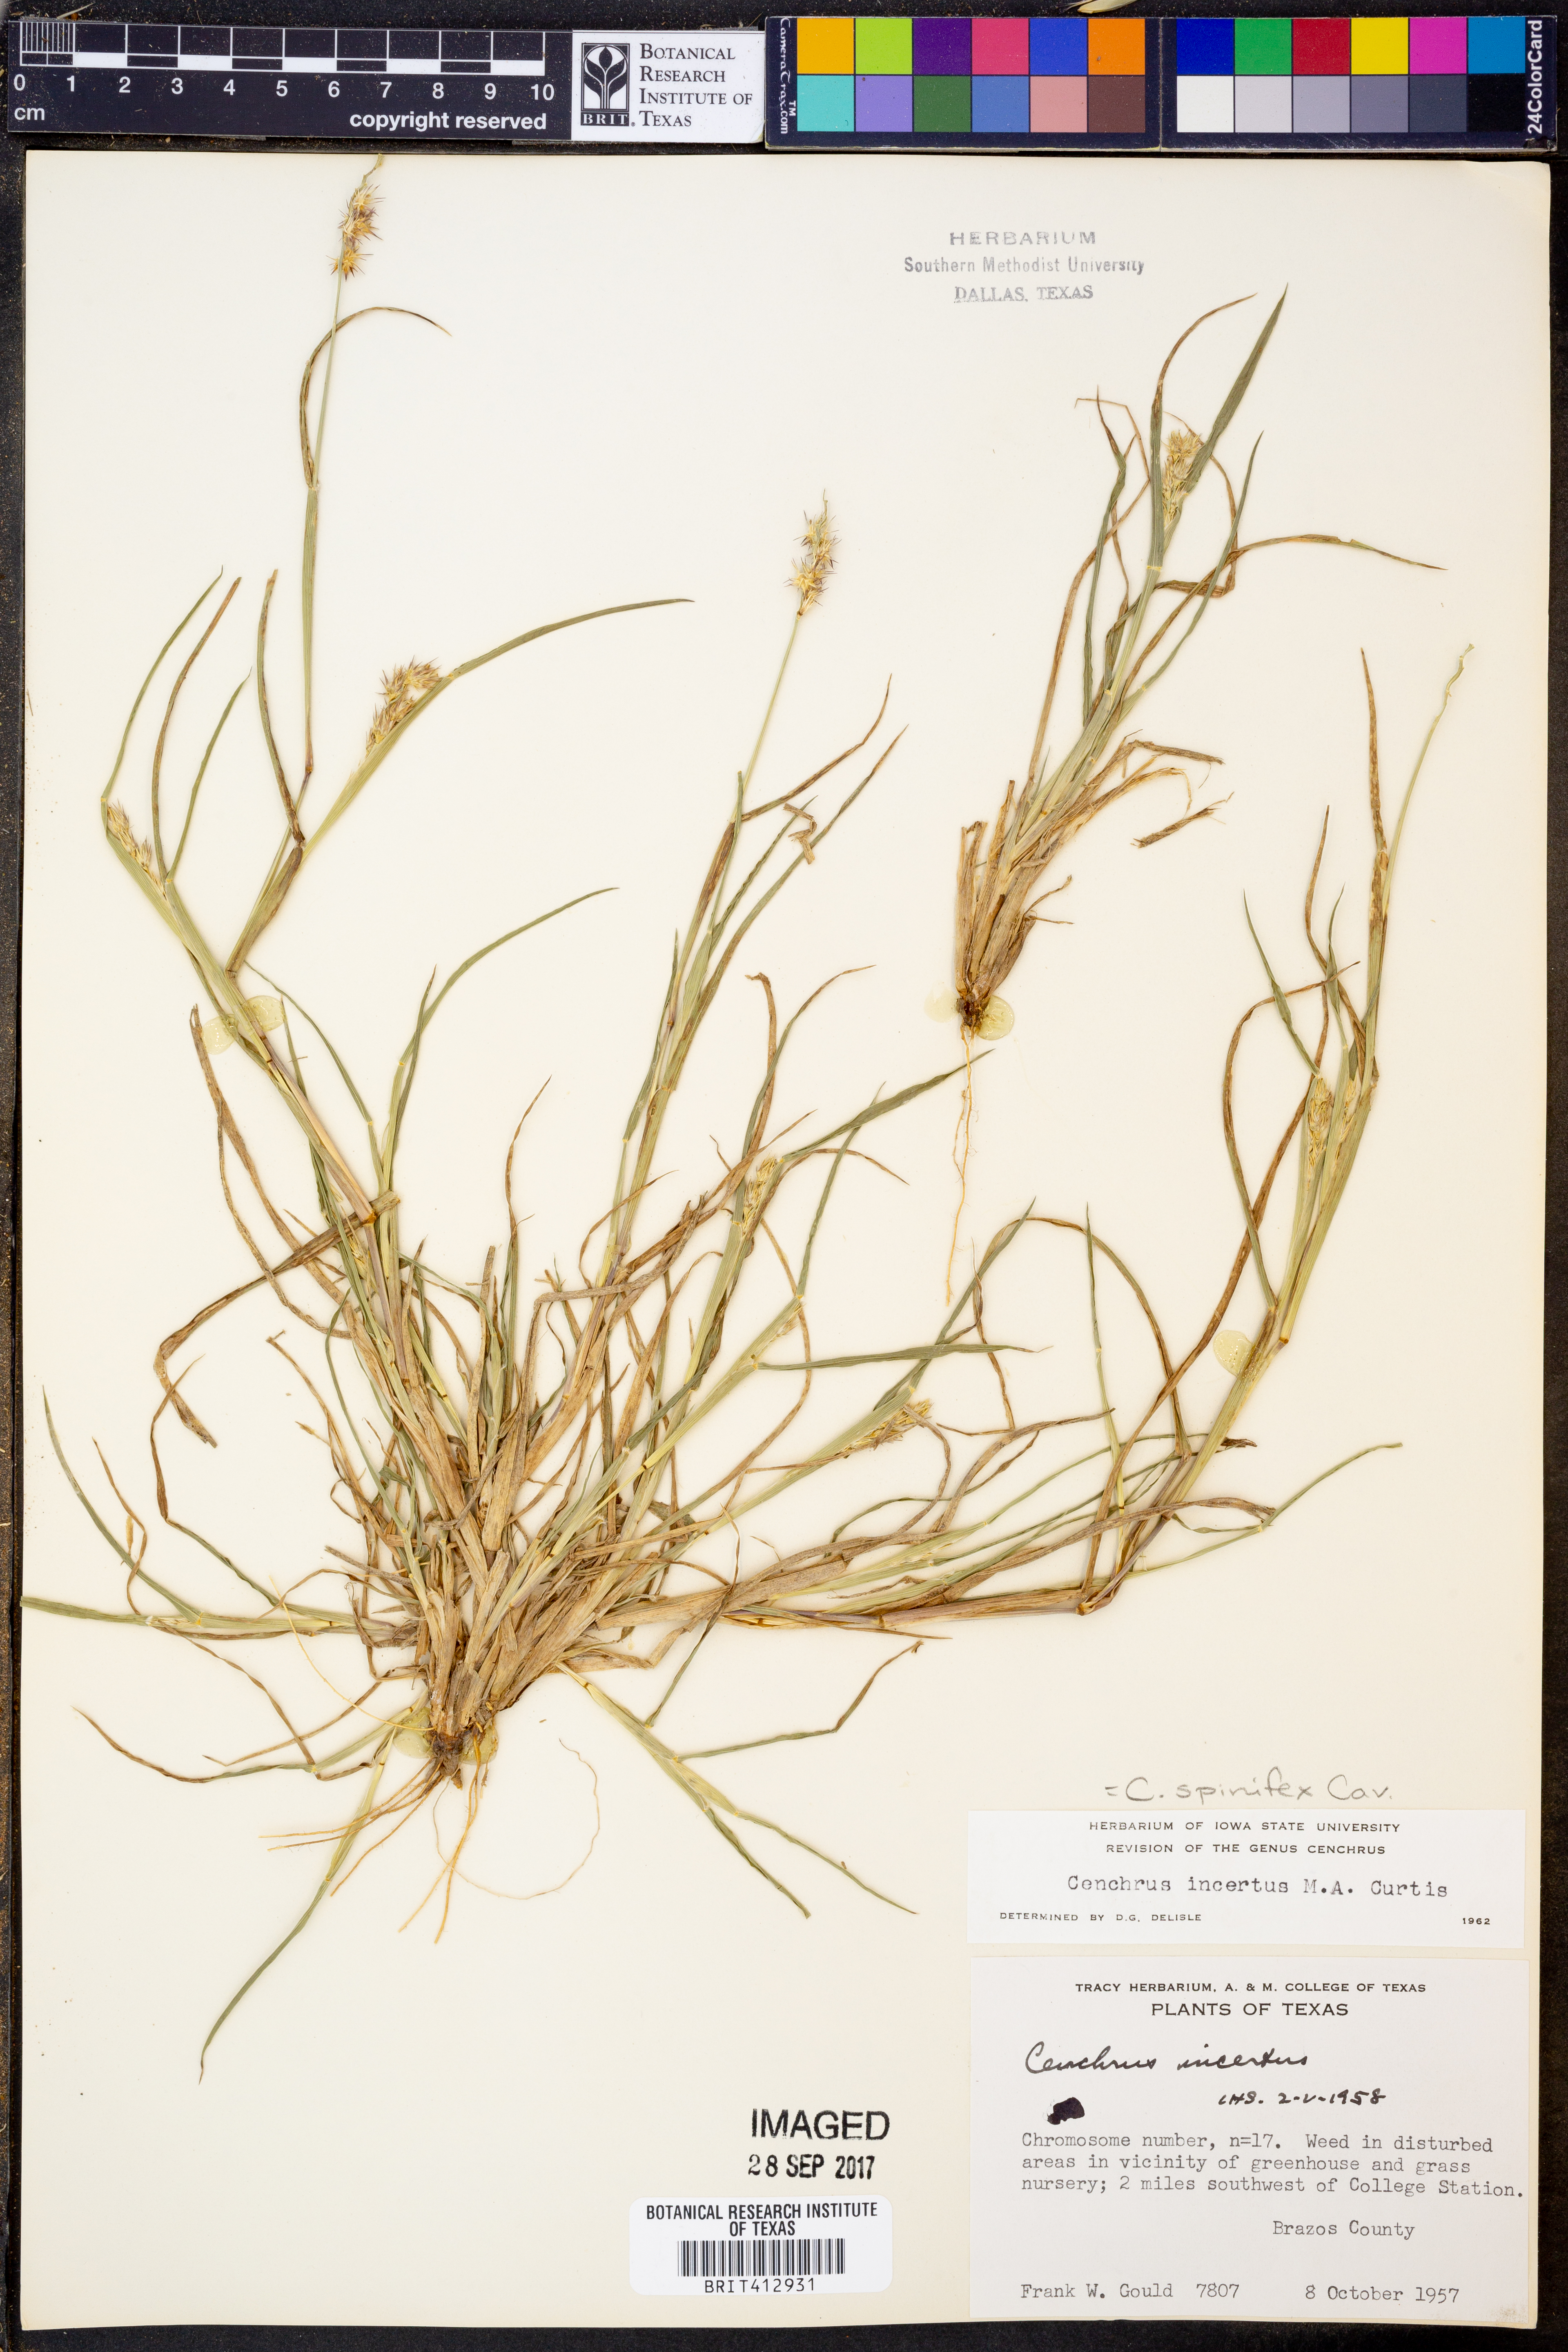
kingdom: Plantae
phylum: Tracheophyta
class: Liliopsida
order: Poales
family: Poaceae
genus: Cenchrus
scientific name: Cenchrus spinifex
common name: Coast sandbur
